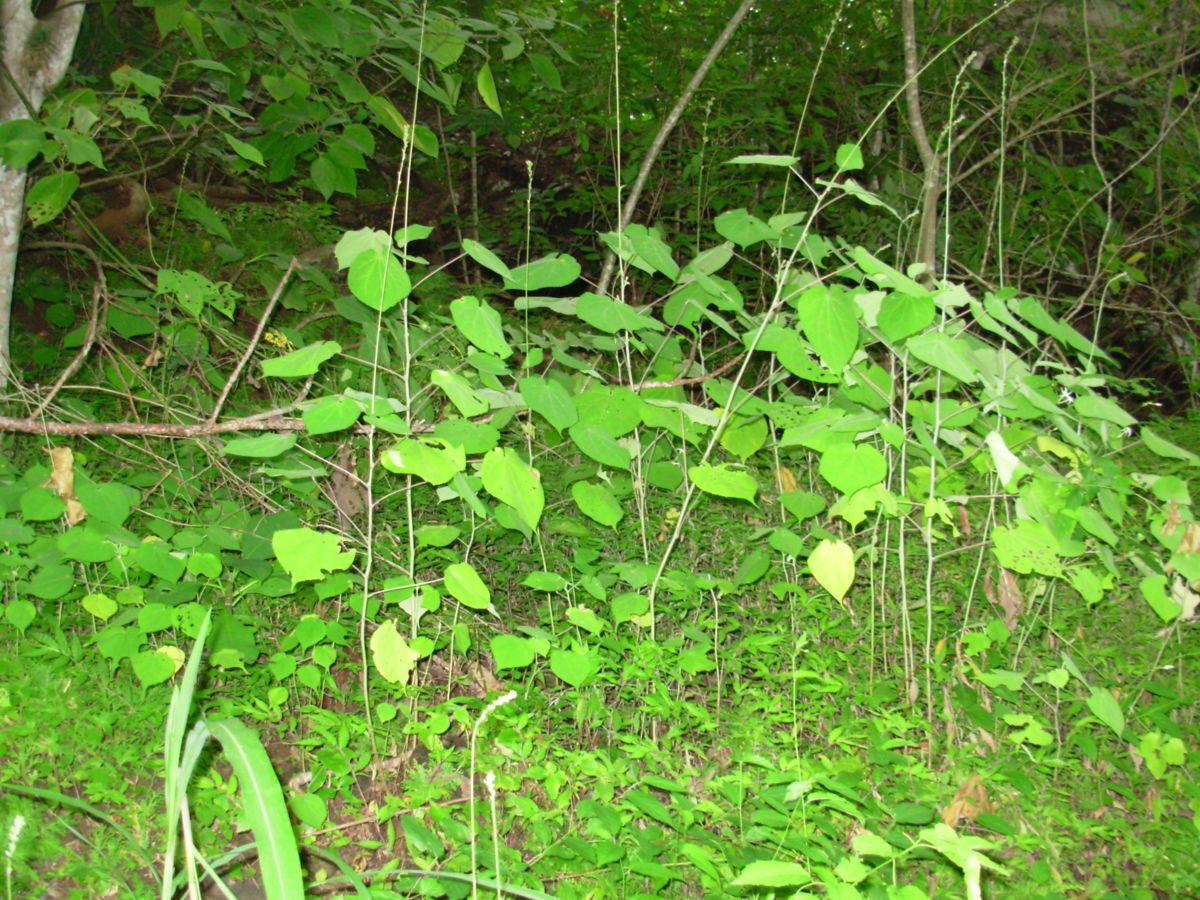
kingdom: Plantae
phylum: Tracheophyta
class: Magnoliopsida
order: Malvales
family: Malvaceae
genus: Allobriquetia
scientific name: Allobriquetia spicata
